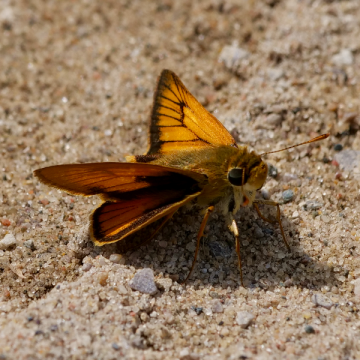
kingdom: Animalia
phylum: Arthropoda
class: Insecta
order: Lepidoptera
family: Hesperiidae
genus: Atrytone
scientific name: Atrytone delaware
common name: Delaware Skipper
